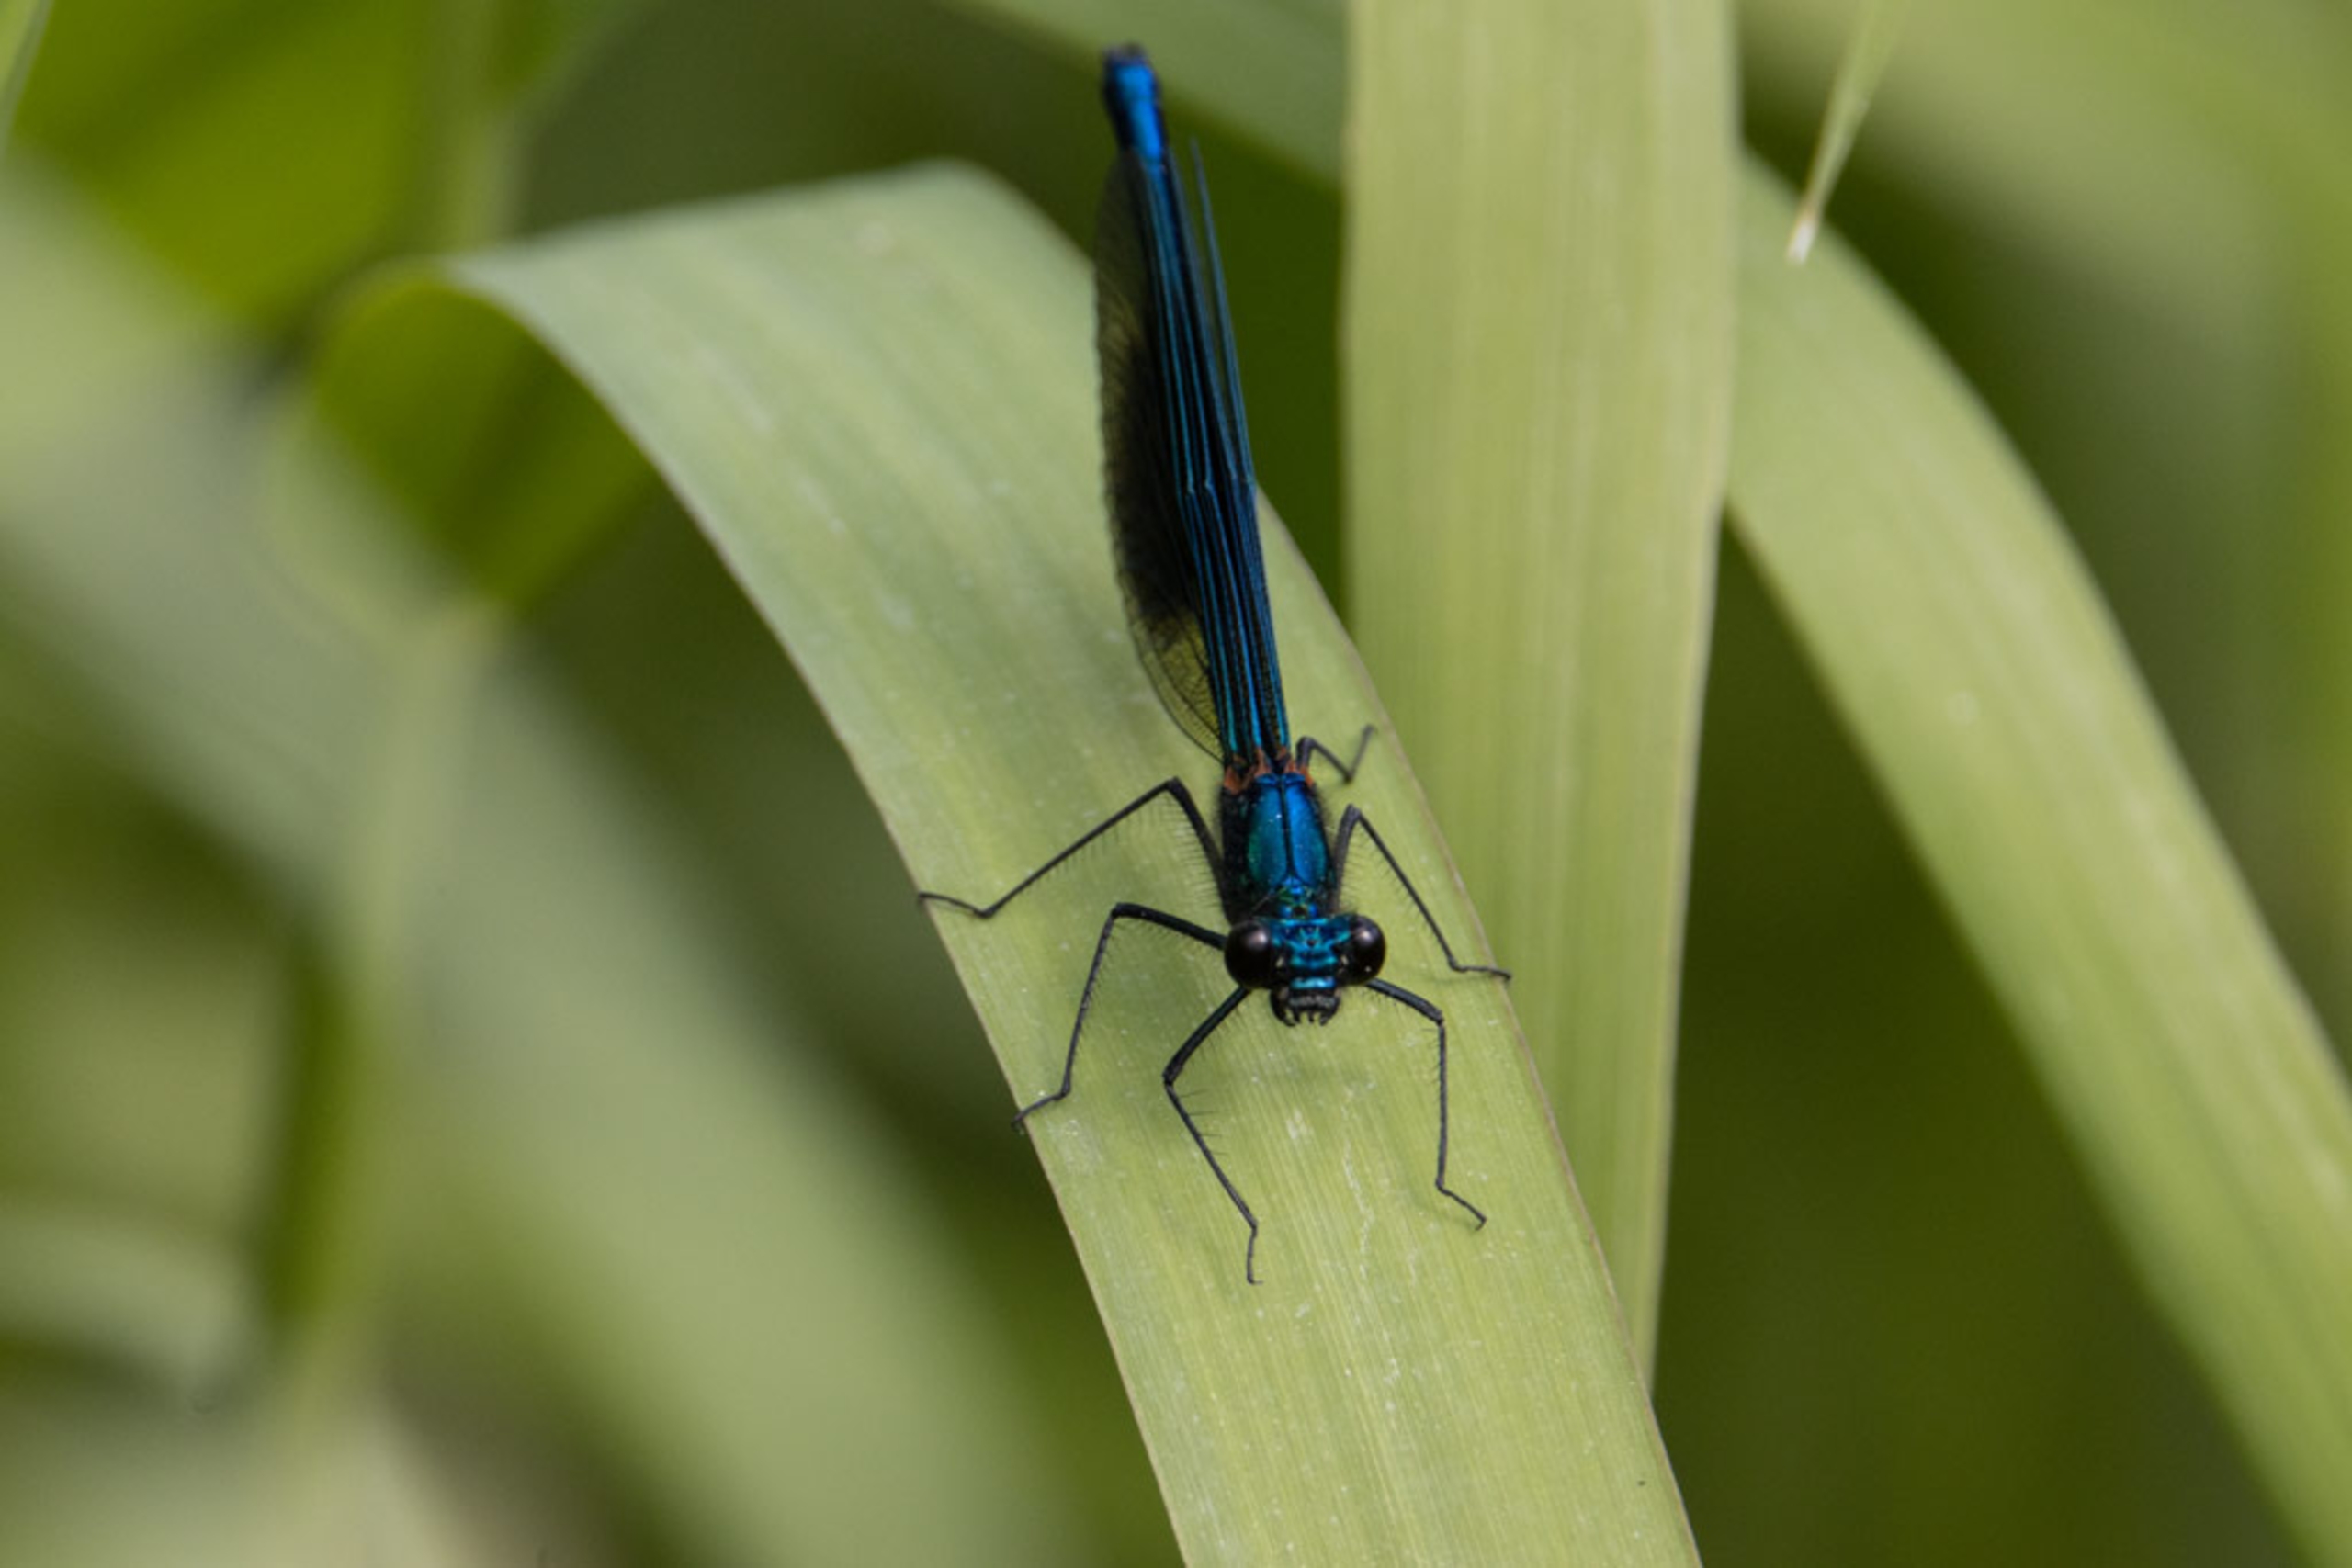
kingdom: Animalia
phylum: Arthropoda
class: Insecta
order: Odonata
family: Calopterygidae
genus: Calopteryx
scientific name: Calopteryx splendens
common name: Blåbåndet pragtvandnymfe
